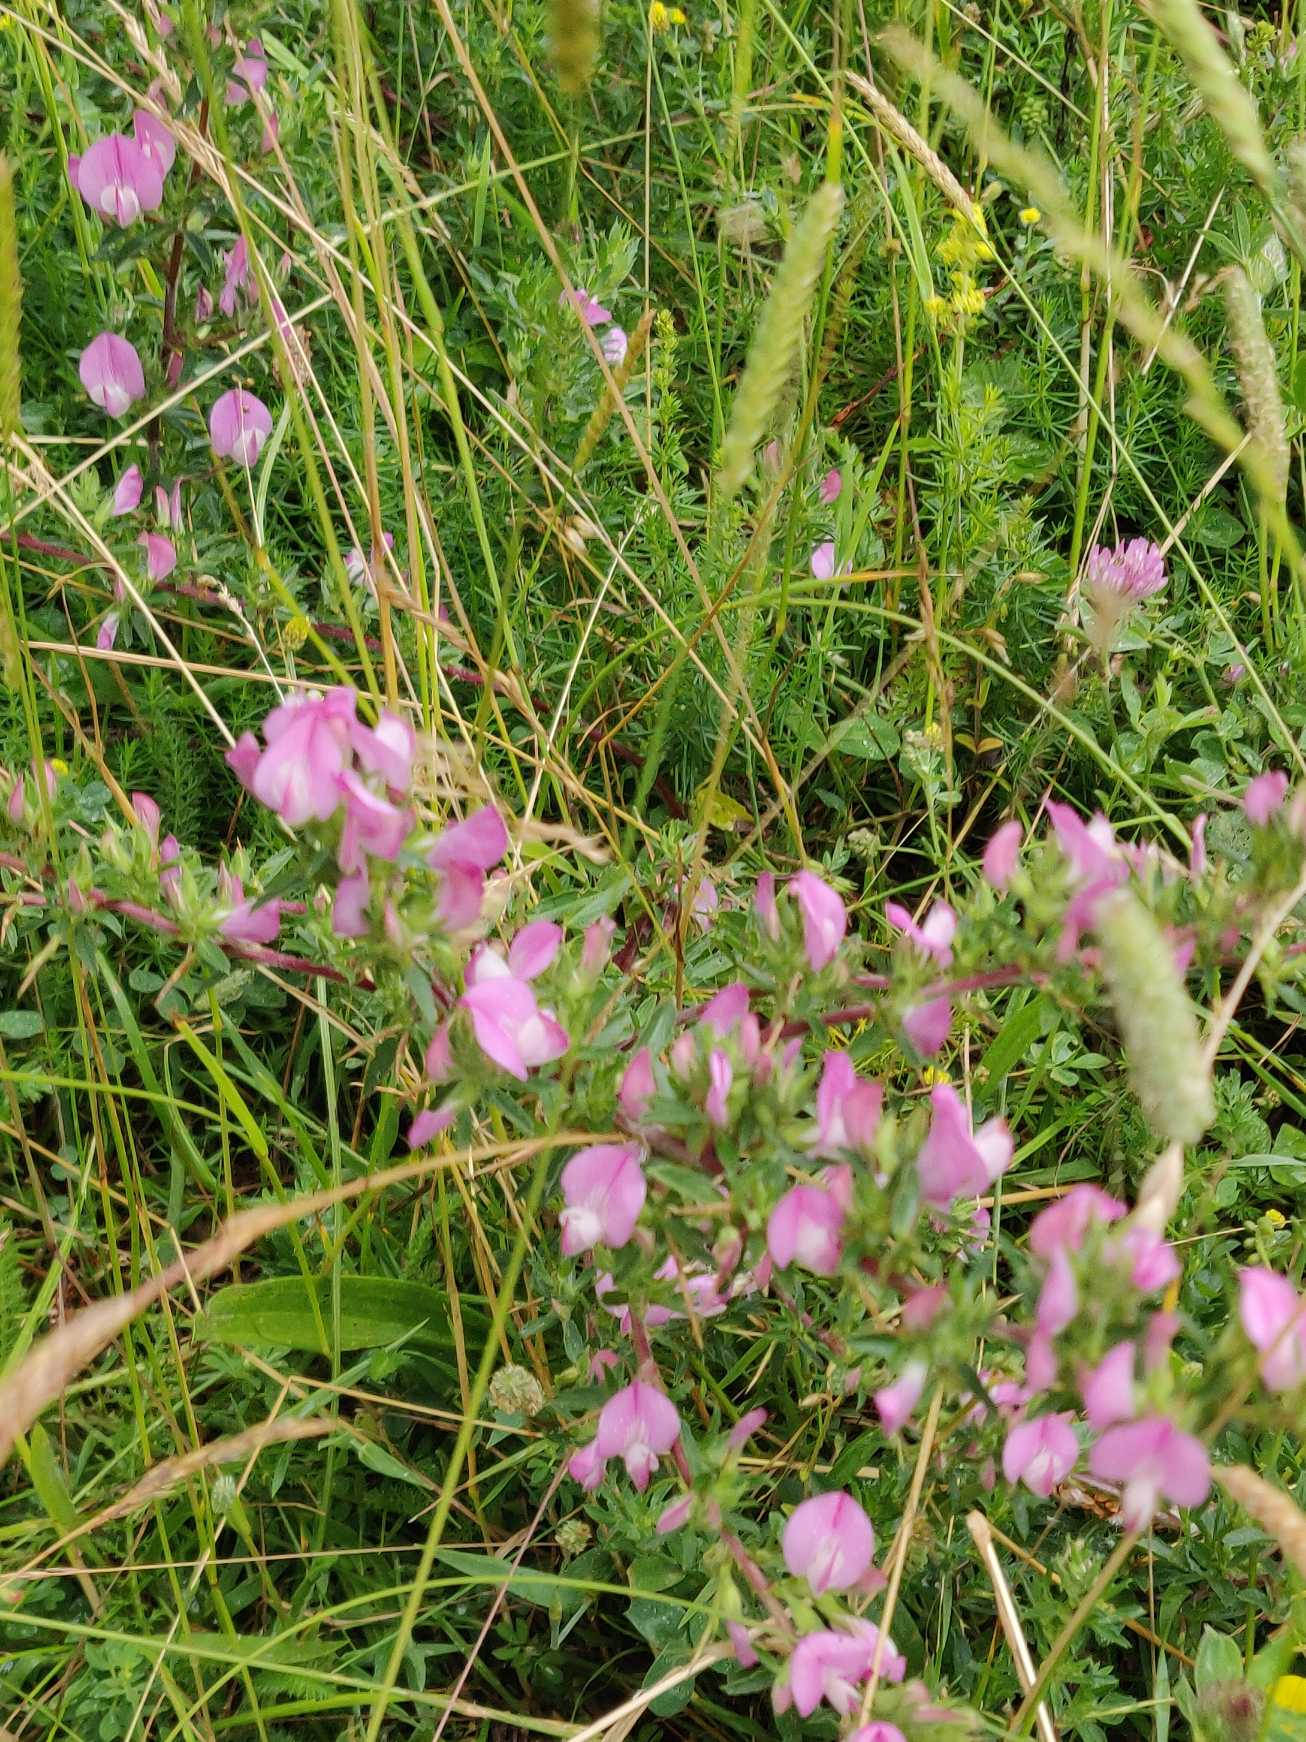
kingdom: Plantae
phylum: Tracheophyta
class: Magnoliopsida
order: Fabales
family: Fabaceae
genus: Ononis
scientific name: Ononis spinosa
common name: Strand-krageklo
